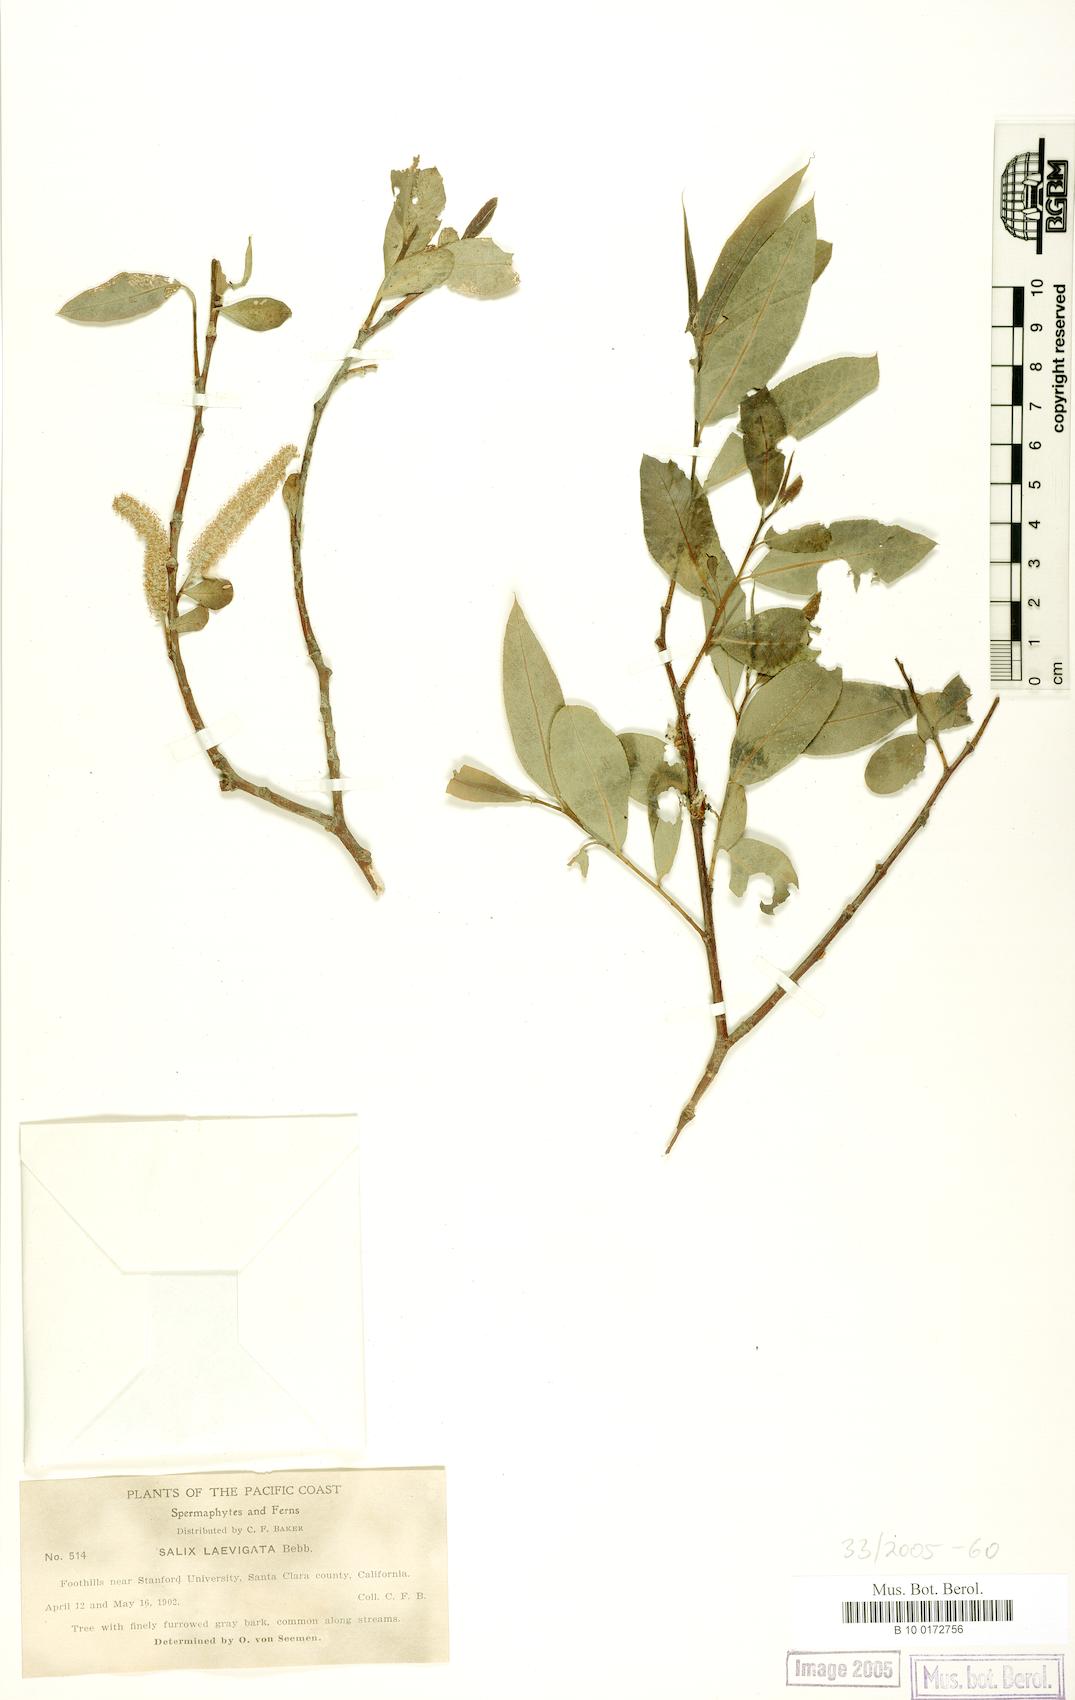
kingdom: Plantae
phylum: Tracheophyta
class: Magnoliopsida
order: Malpighiales
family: Salicaceae
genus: Salix
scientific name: Salix laevigata
